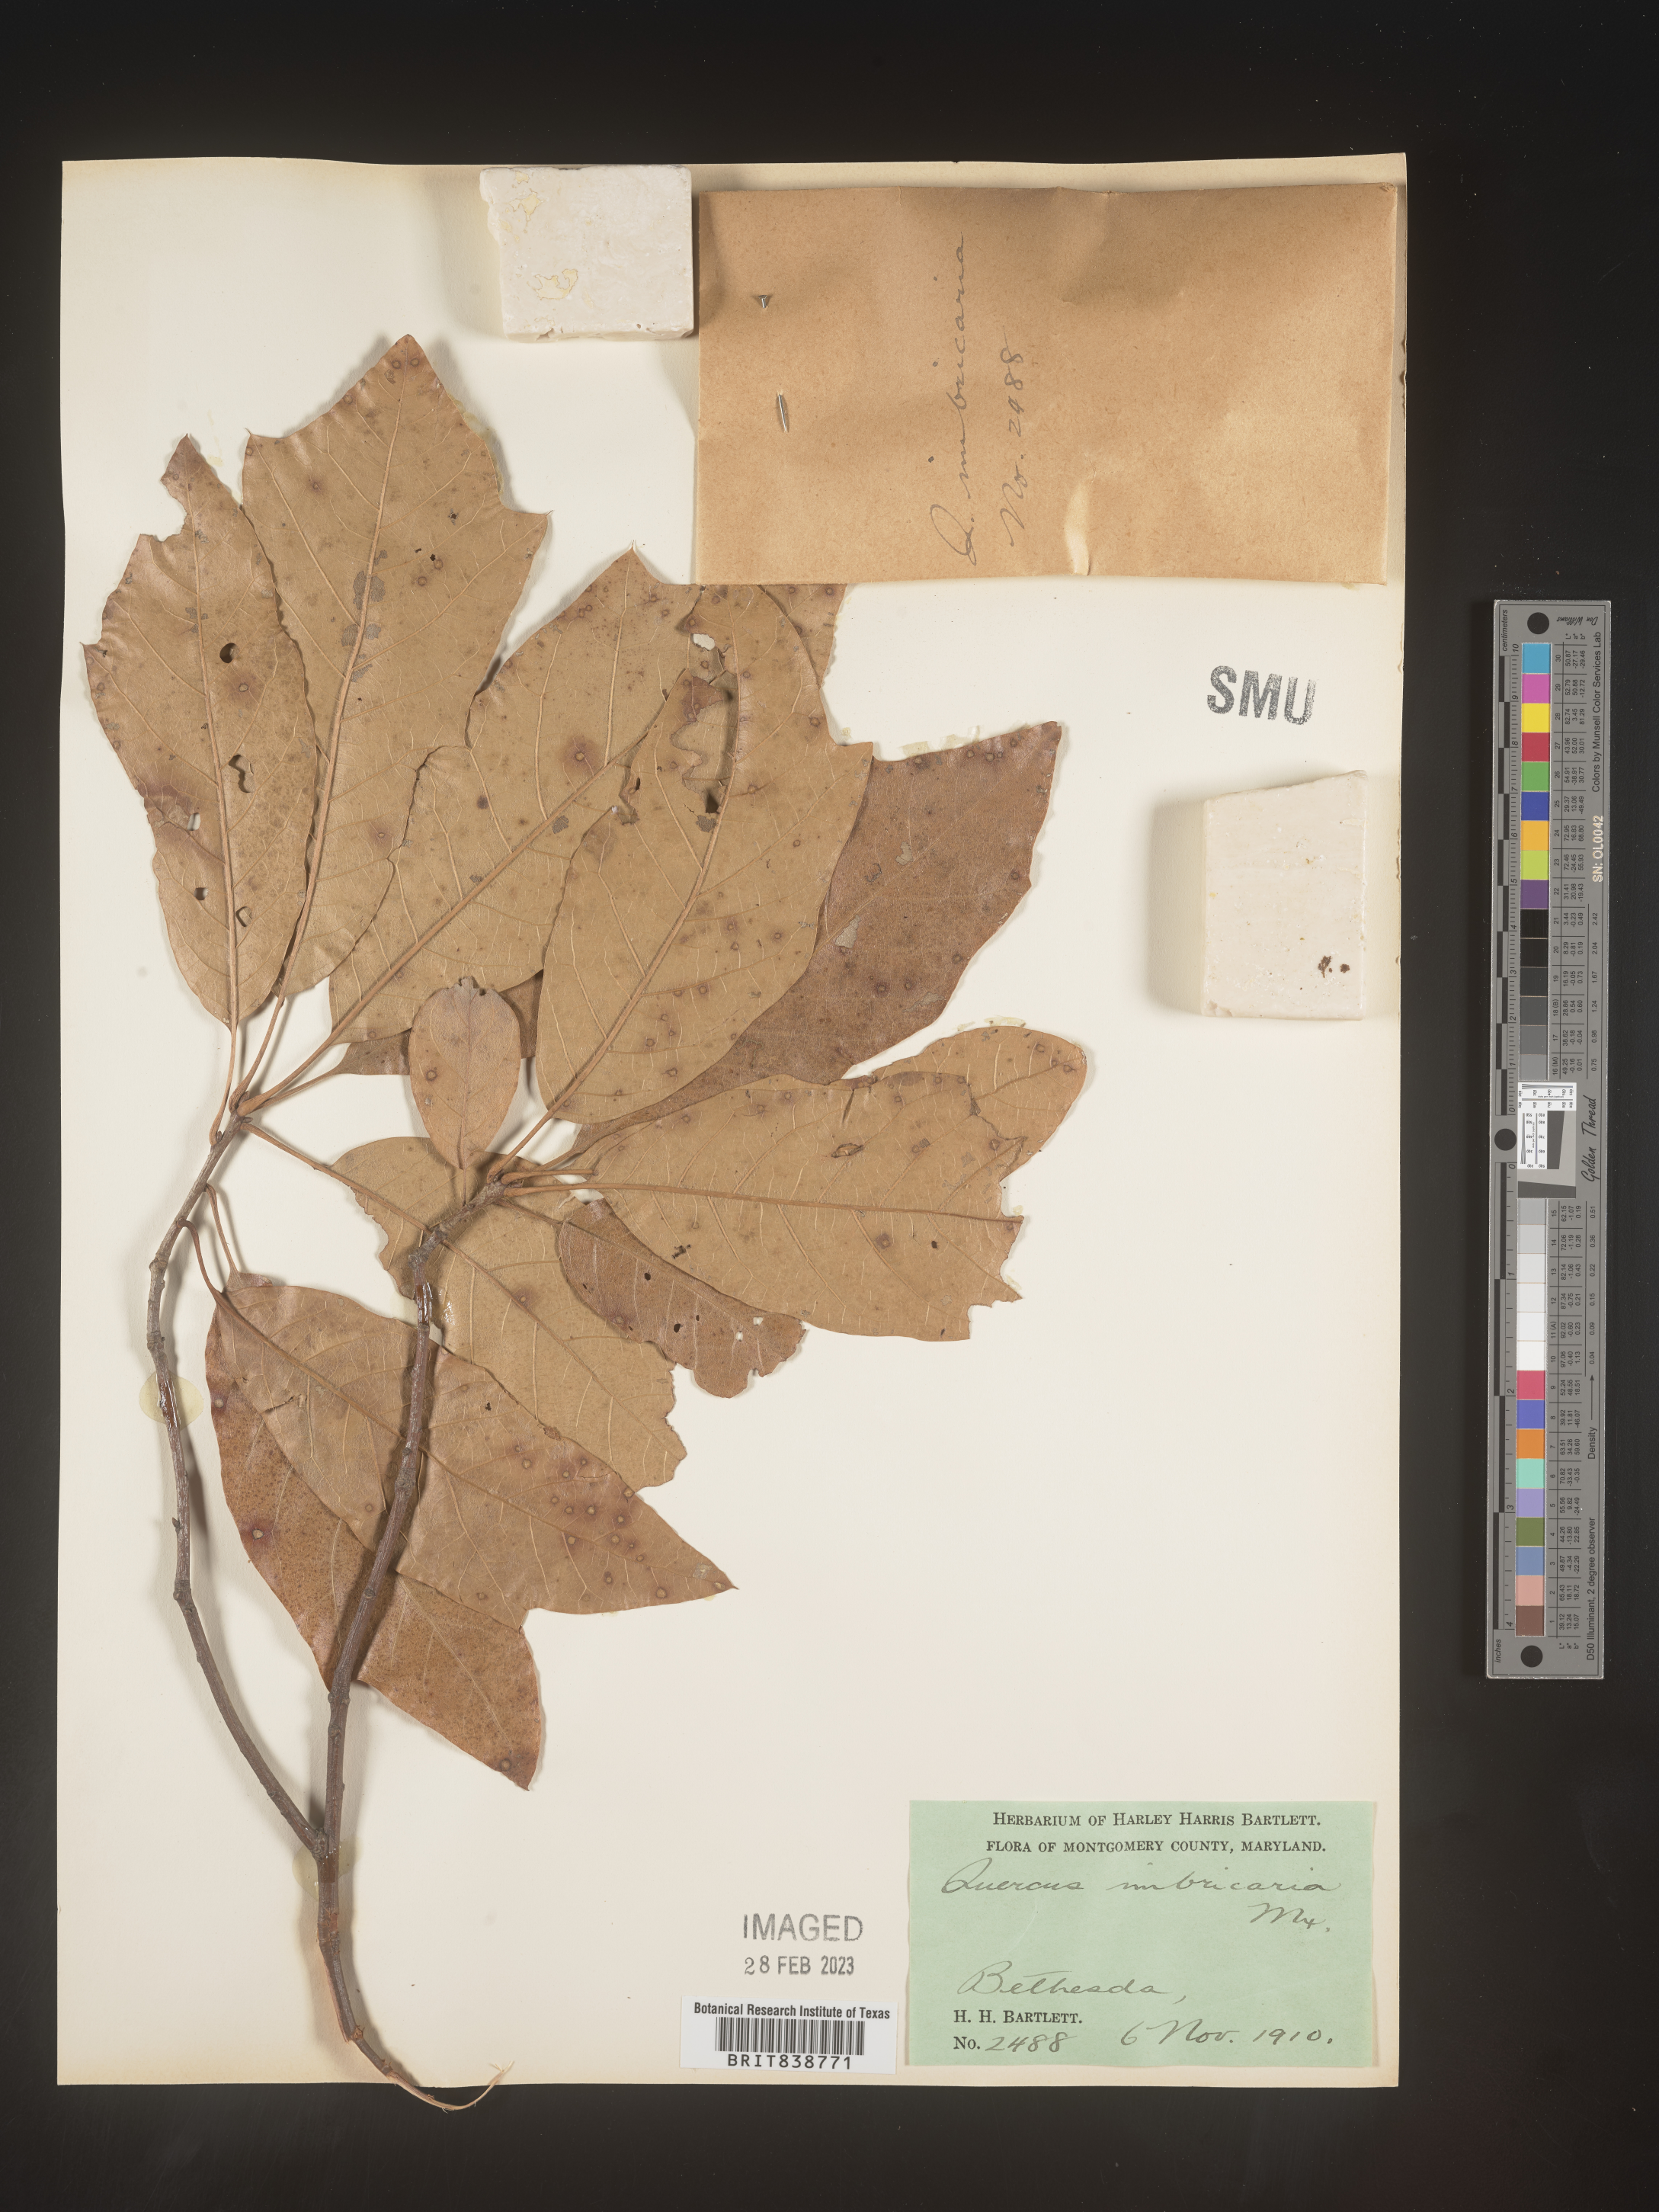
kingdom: Plantae
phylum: Tracheophyta
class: Magnoliopsida
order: Fagales
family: Fagaceae
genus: Quercus
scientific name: Quercus imbricaria
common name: Shingle oak
